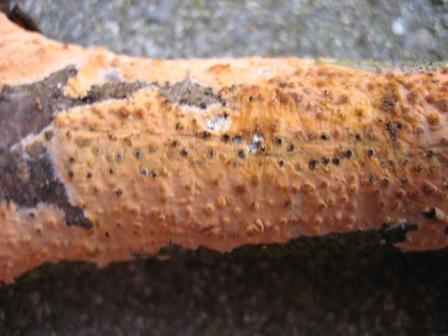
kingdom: Fungi
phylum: Basidiomycota
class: Agaricomycetes
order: Russulales
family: Peniophoraceae
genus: Peniophora
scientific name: Peniophora incarnata
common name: laksefarvet voksskind
